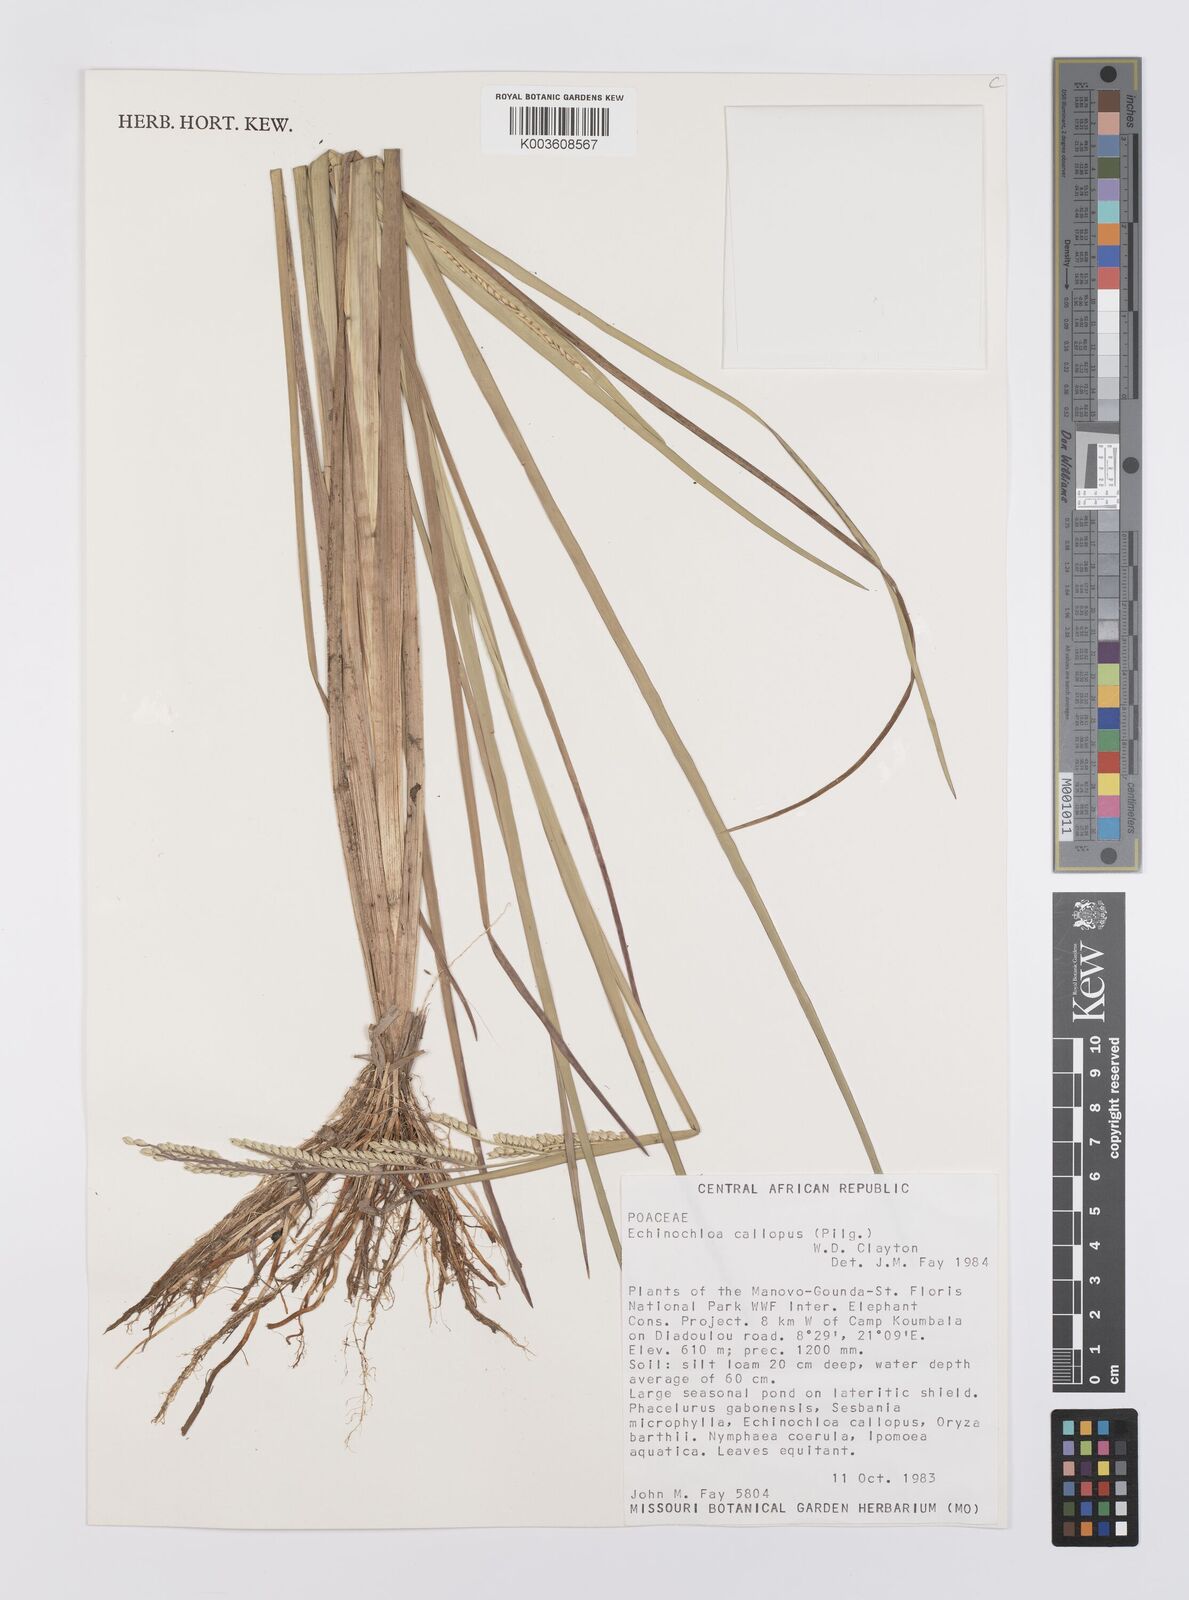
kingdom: Plantae
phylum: Tracheophyta
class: Liliopsida
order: Poales
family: Poaceae
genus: Echinochloa
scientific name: Echinochloa callopus
